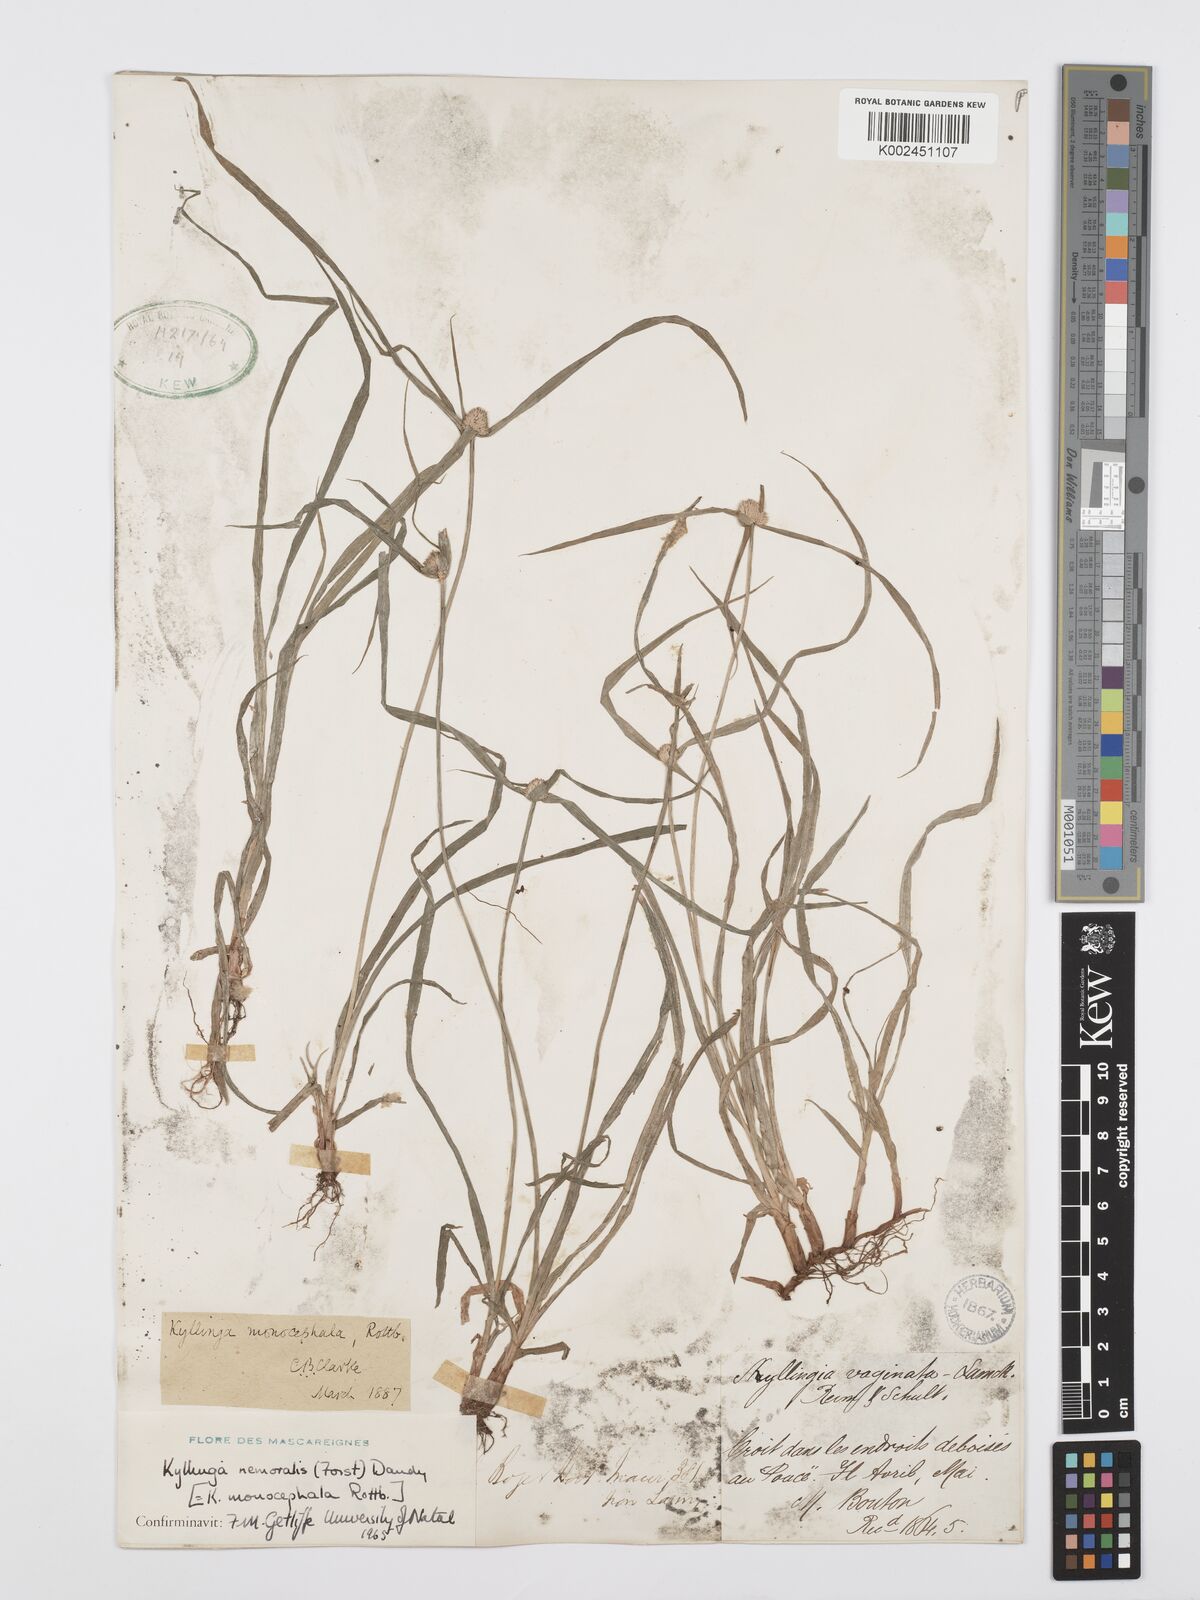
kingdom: Plantae
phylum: Tracheophyta
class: Liliopsida
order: Poales
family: Cyperaceae
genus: Cyperus
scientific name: Cyperus nemoralis
